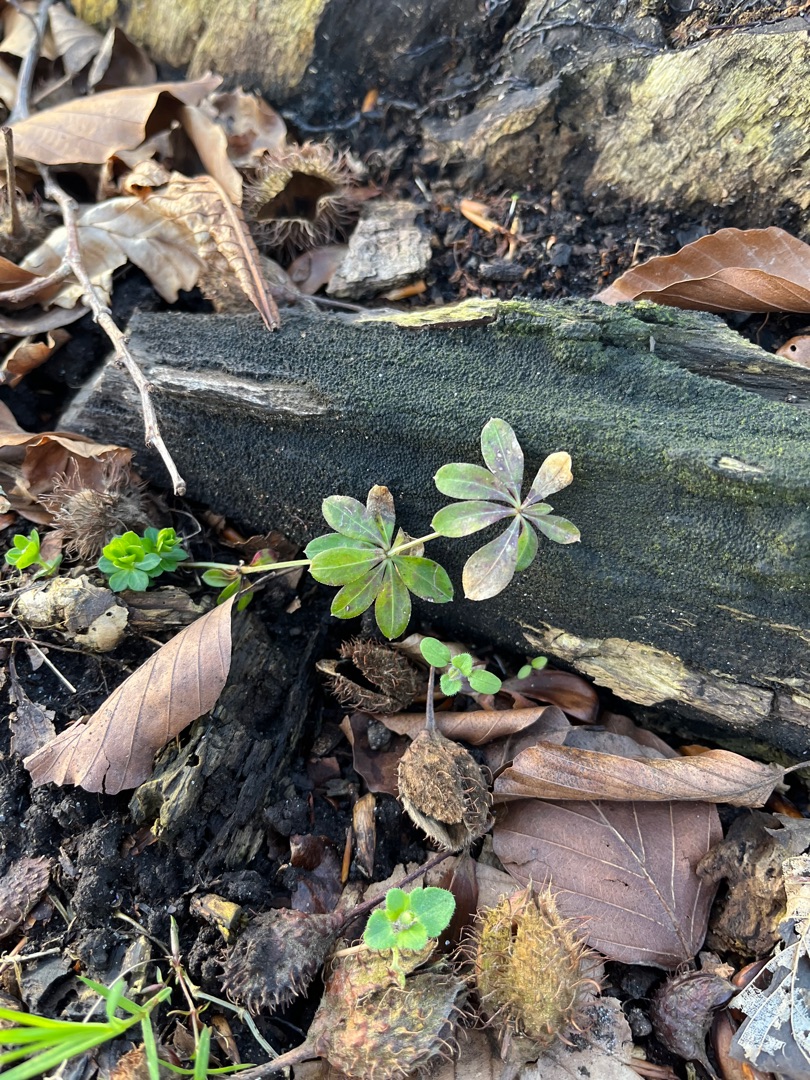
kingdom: Plantae
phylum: Tracheophyta
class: Magnoliopsida
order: Gentianales
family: Rubiaceae
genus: Galium
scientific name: Galium odoratum
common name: Skovmærke
